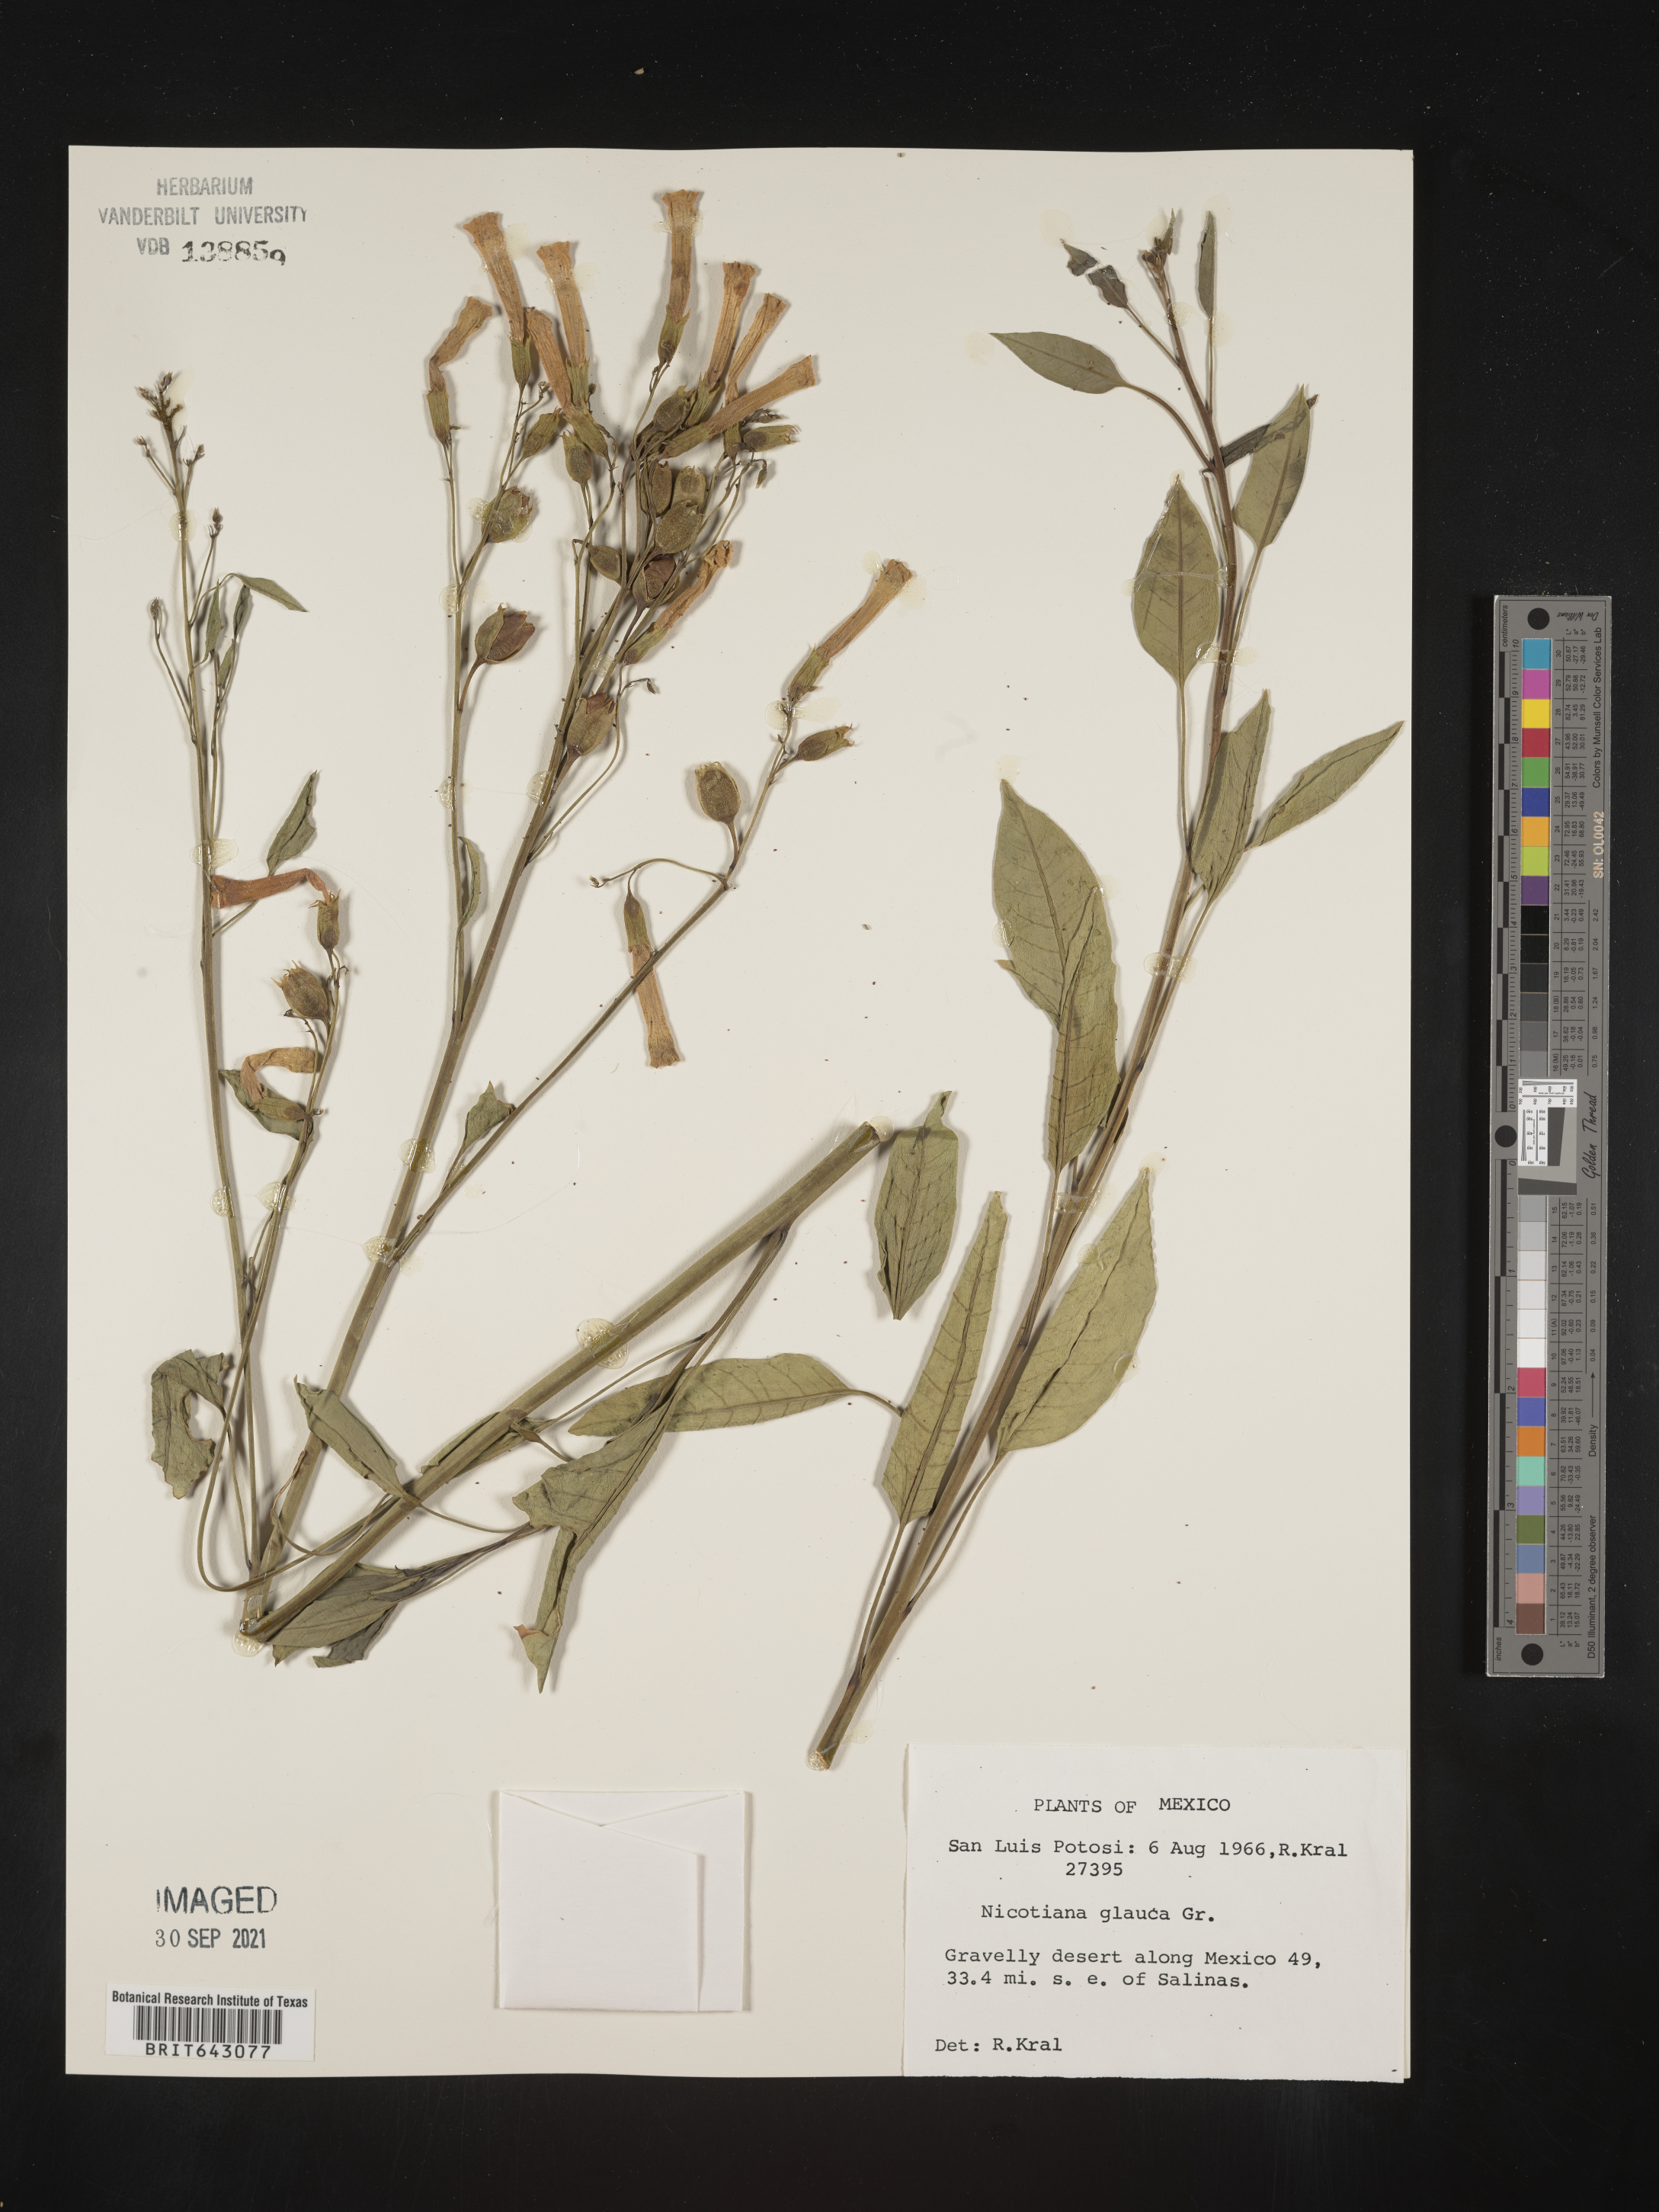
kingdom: Plantae
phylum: Tracheophyta
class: Magnoliopsida
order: Solanales
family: Solanaceae
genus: Nicotiana
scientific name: Nicotiana
